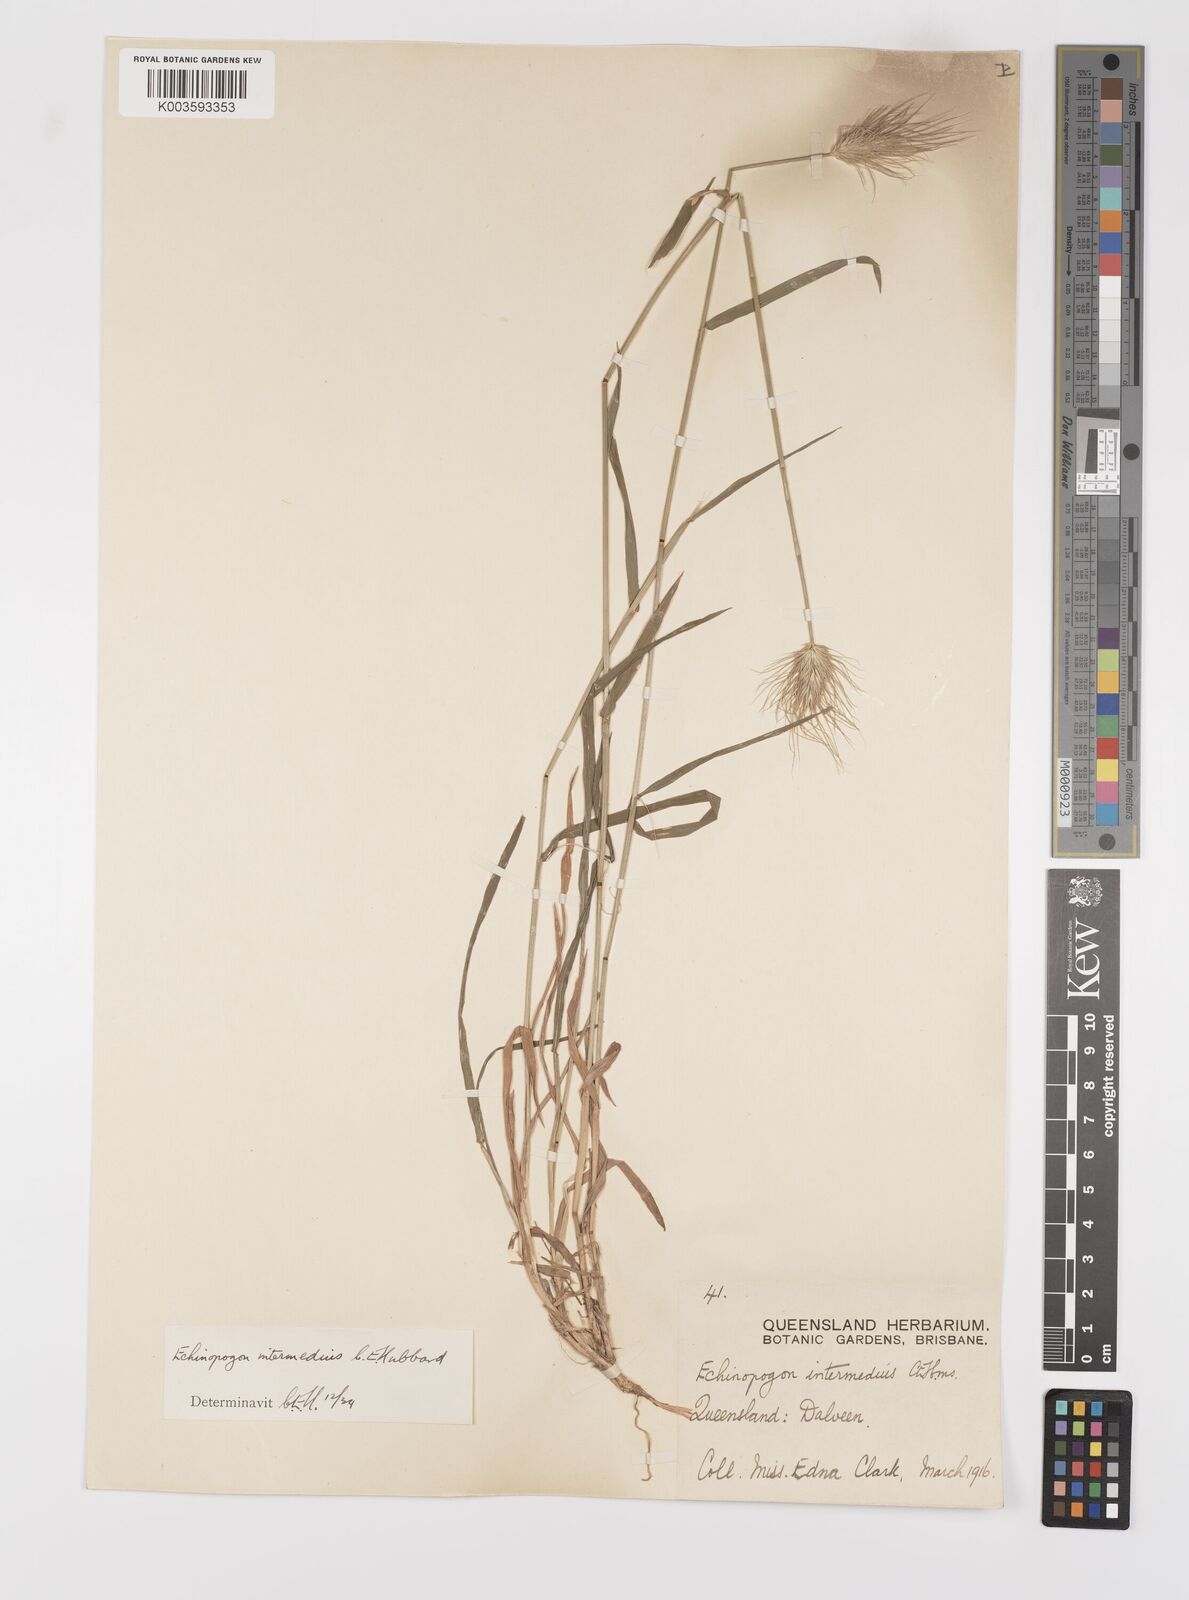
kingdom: Plantae
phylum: Tracheophyta
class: Liliopsida
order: Poales
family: Poaceae
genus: Echinopogon
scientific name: Echinopogon intermedius
